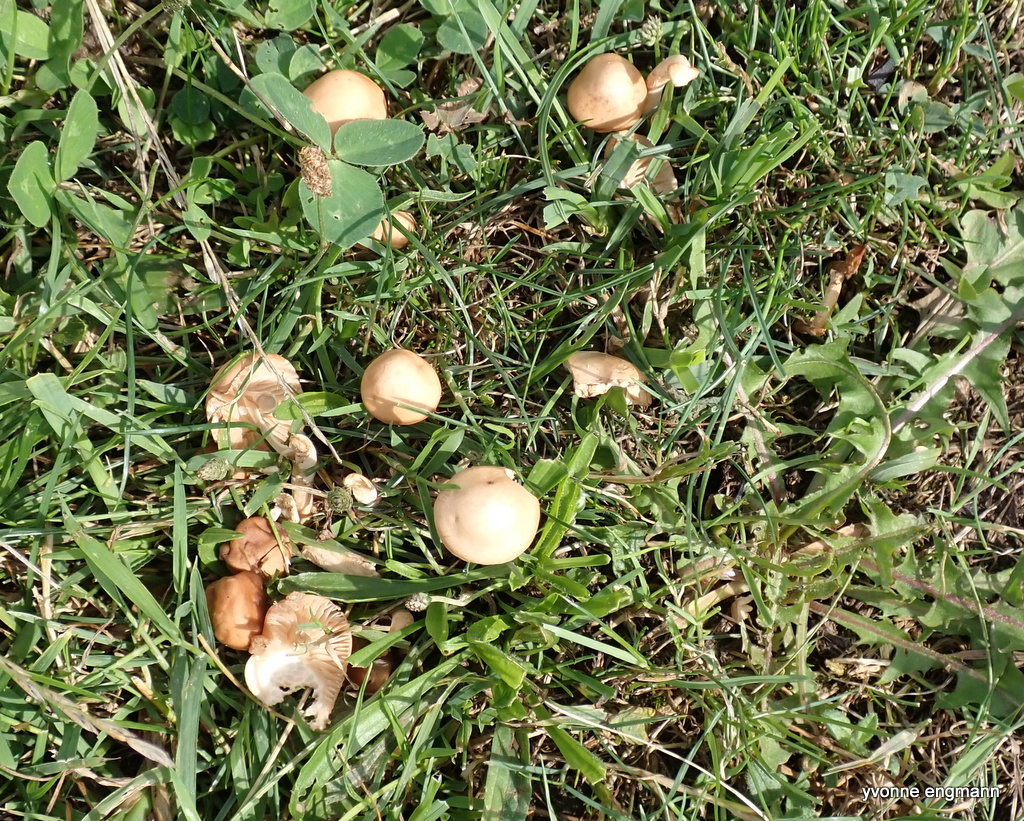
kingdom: Fungi
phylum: Basidiomycota
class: Agaricomycetes
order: Agaricales
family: Marasmiaceae
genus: Marasmius
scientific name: Marasmius oreades
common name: elledans-bruskhat
